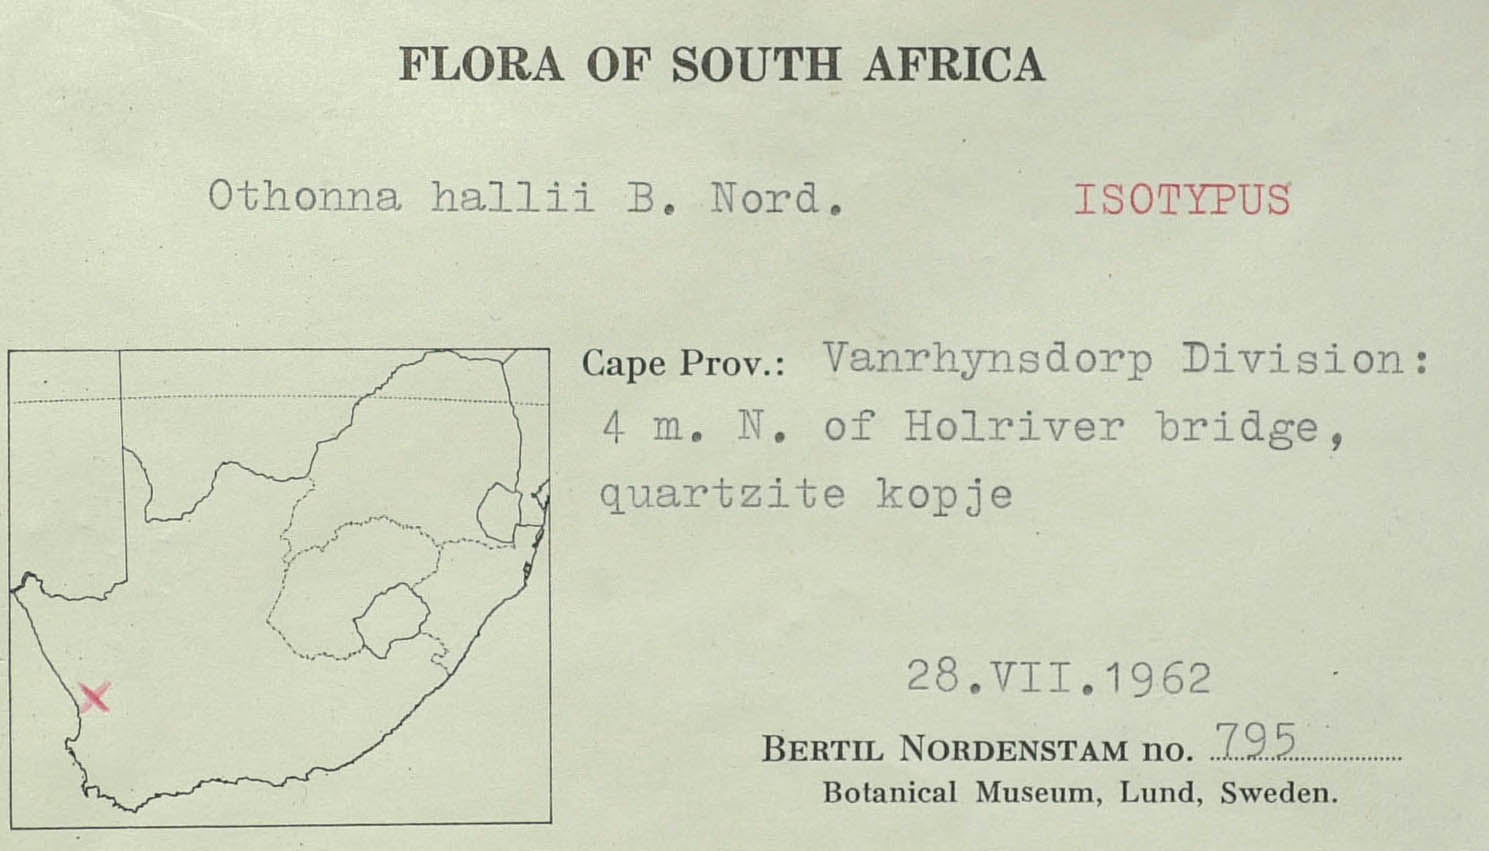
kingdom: Plantae
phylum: Tracheophyta
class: Magnoliopsida
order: Asterales
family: Asteraceae
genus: Othonna
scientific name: Othonna hallii
